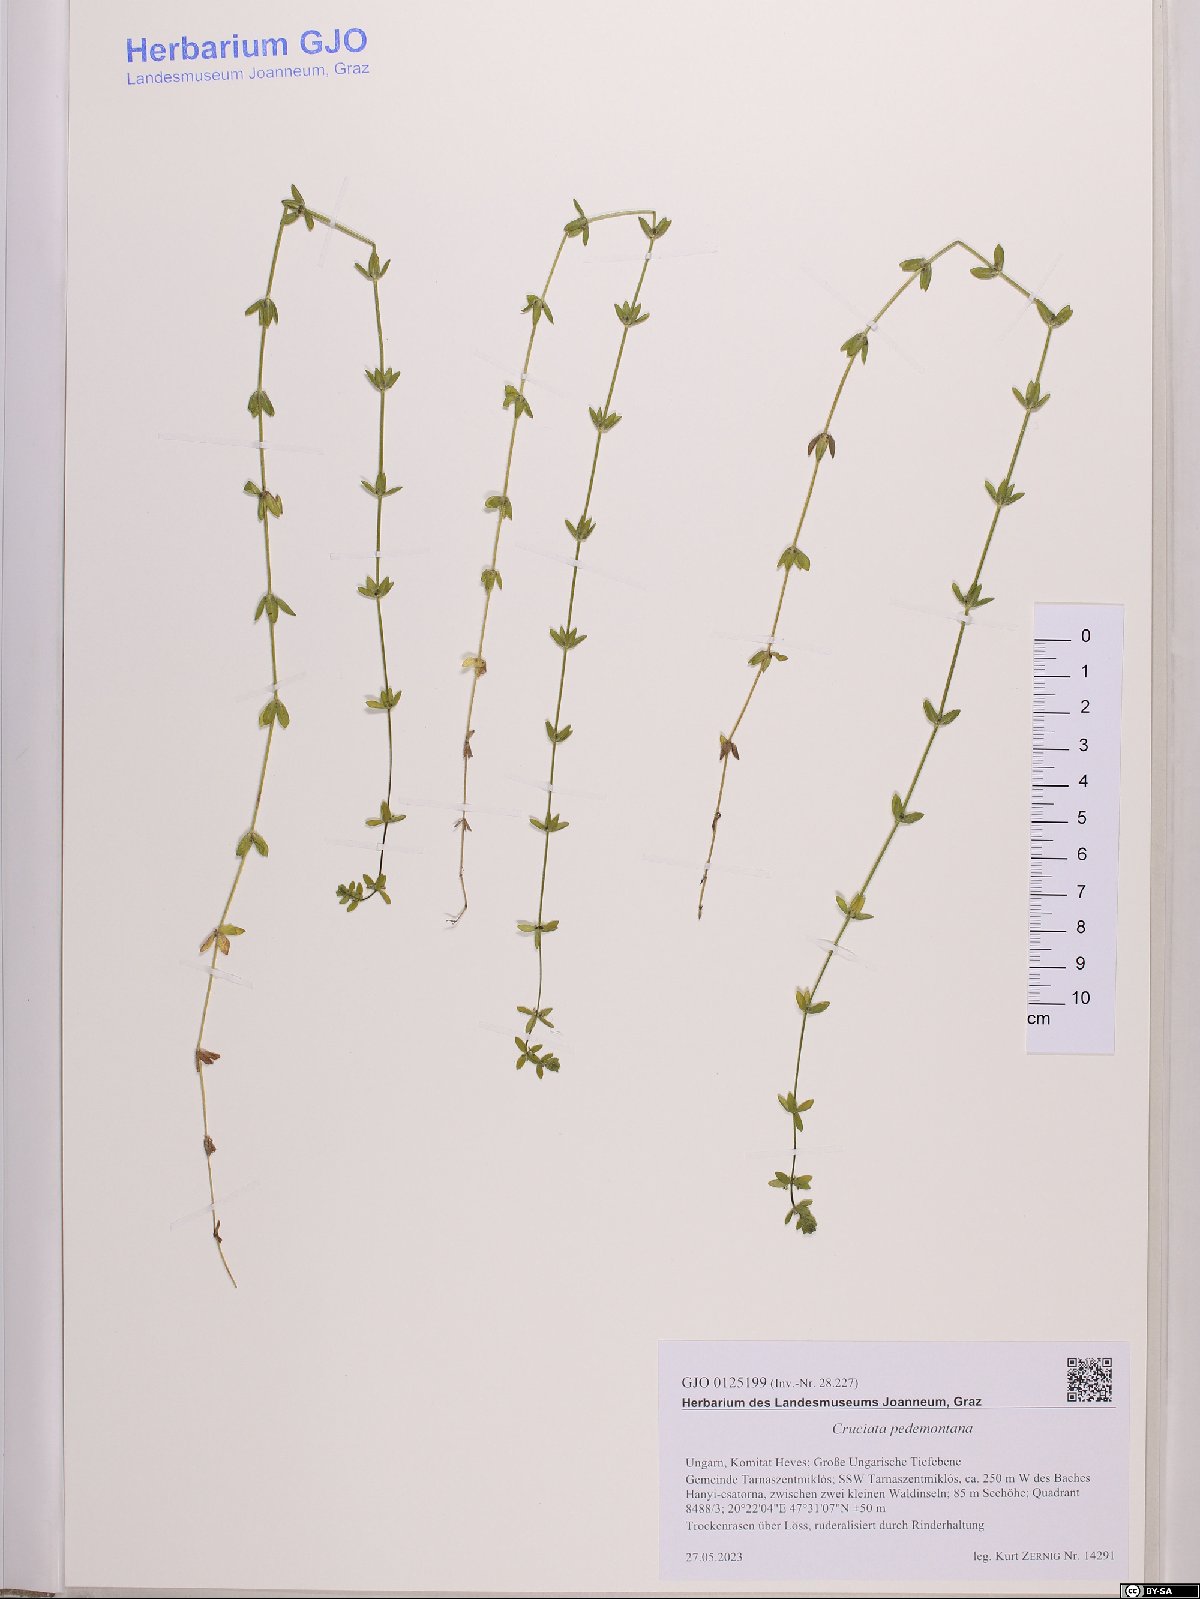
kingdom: Plantae
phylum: Tracheophyta
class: Magnoliopsida
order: Gentianales
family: Rubiaceae
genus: Cruciata
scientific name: Cruciata pedemontana
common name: Piedmont bedstraw
